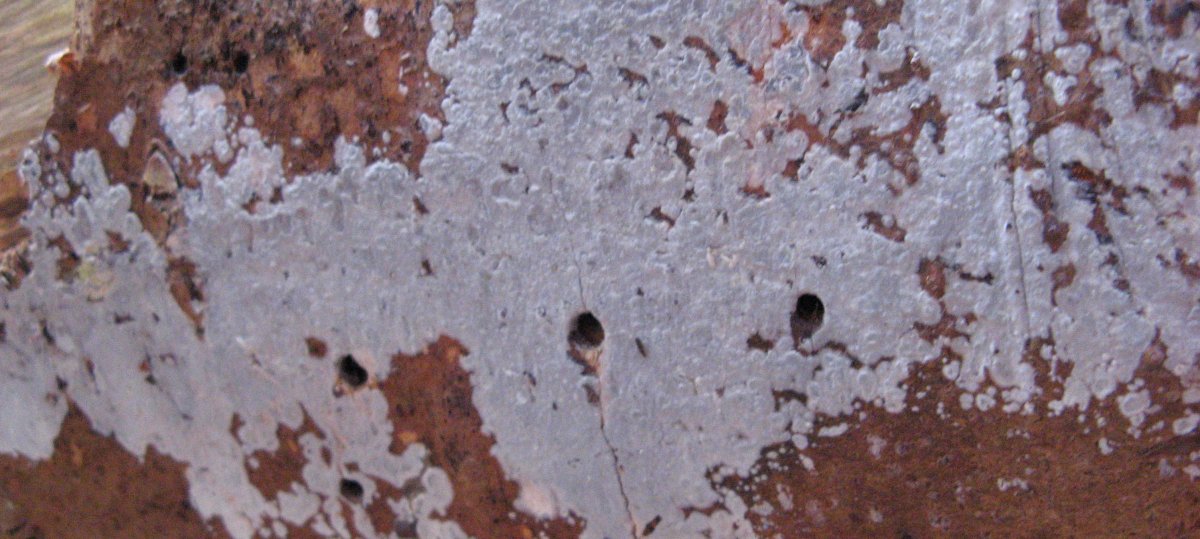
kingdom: Fungi
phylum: Basidiomycota
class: Agaricomycetes
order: Sebacinales
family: Sebacinaceae
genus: Sebacina
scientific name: Sebacina grisea
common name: blågrå bævrehinde
